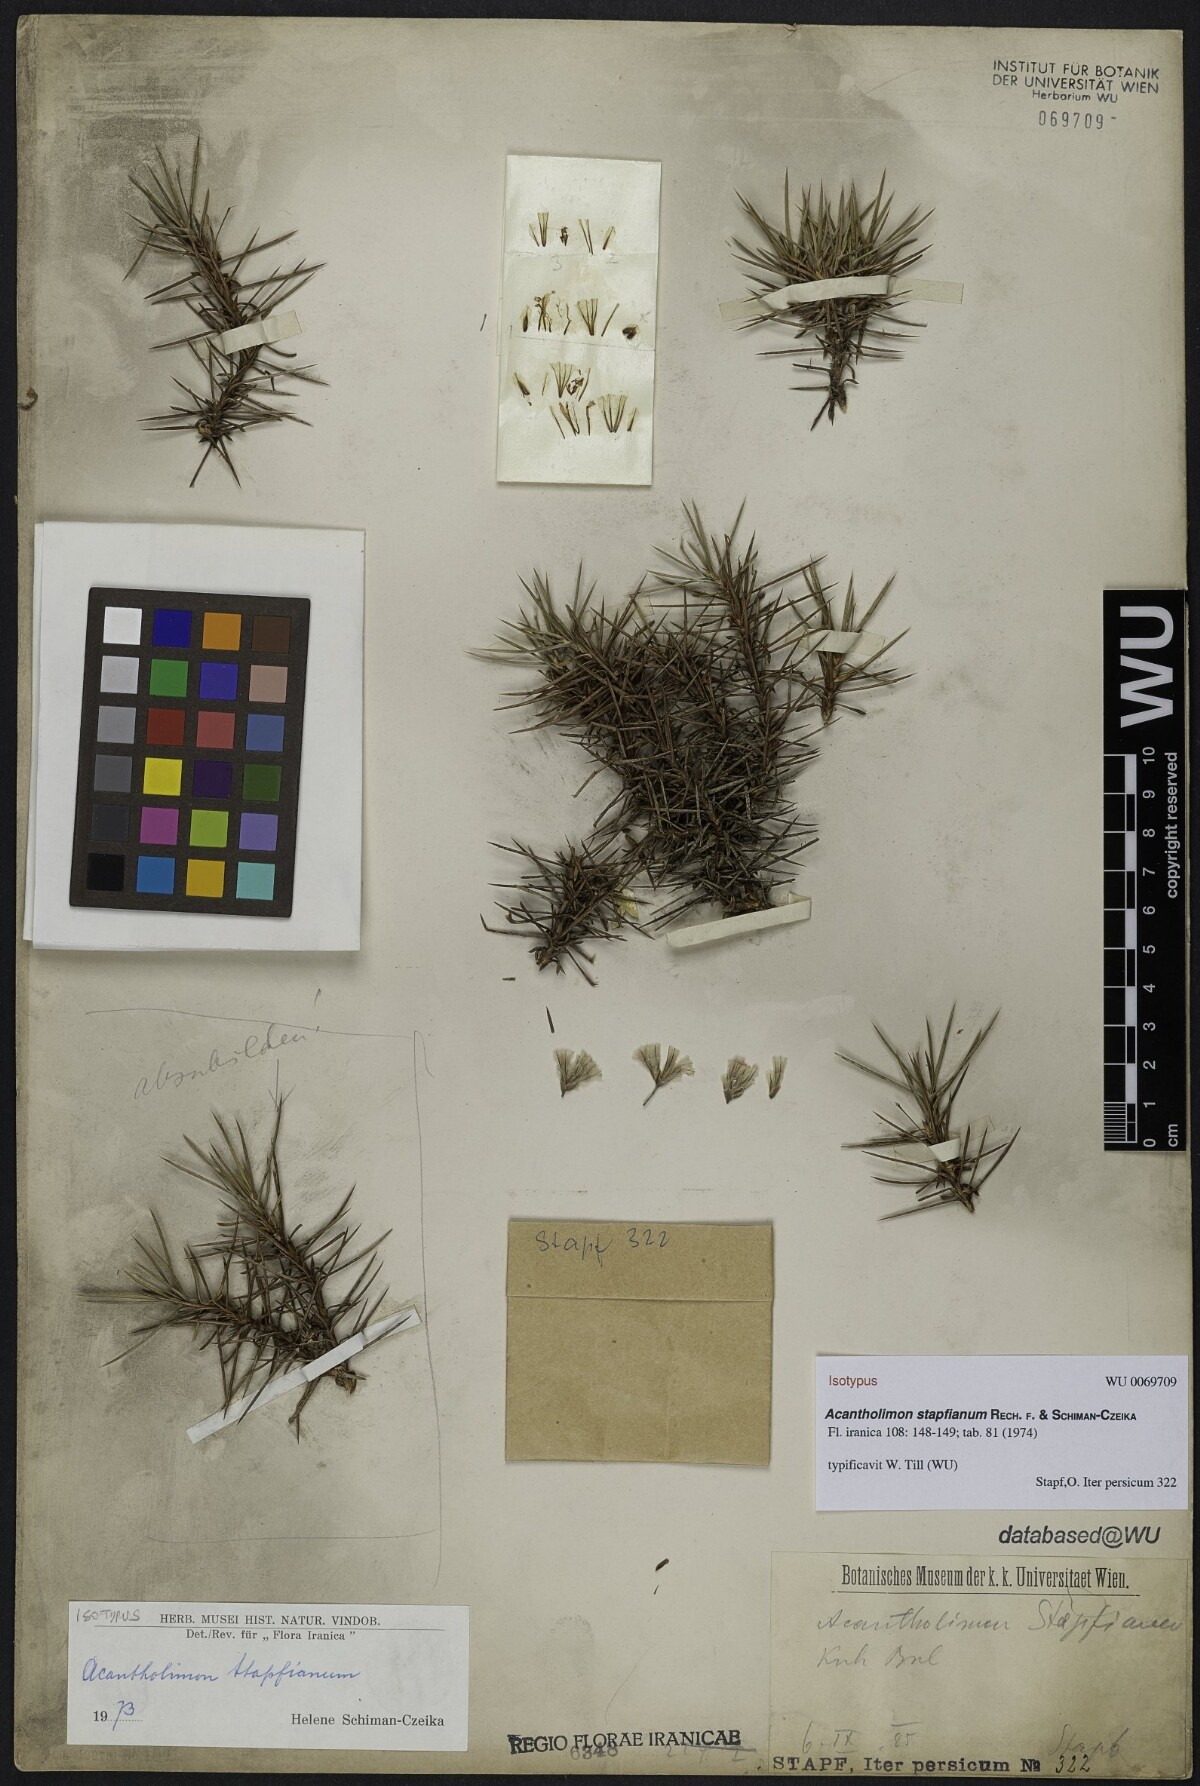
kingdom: Plantae
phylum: Tracheophyta
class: Magnoliopsida
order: Caryophyllales
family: Plumbaginaceae
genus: Acantholimon
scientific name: Acantholimon stapfianum
